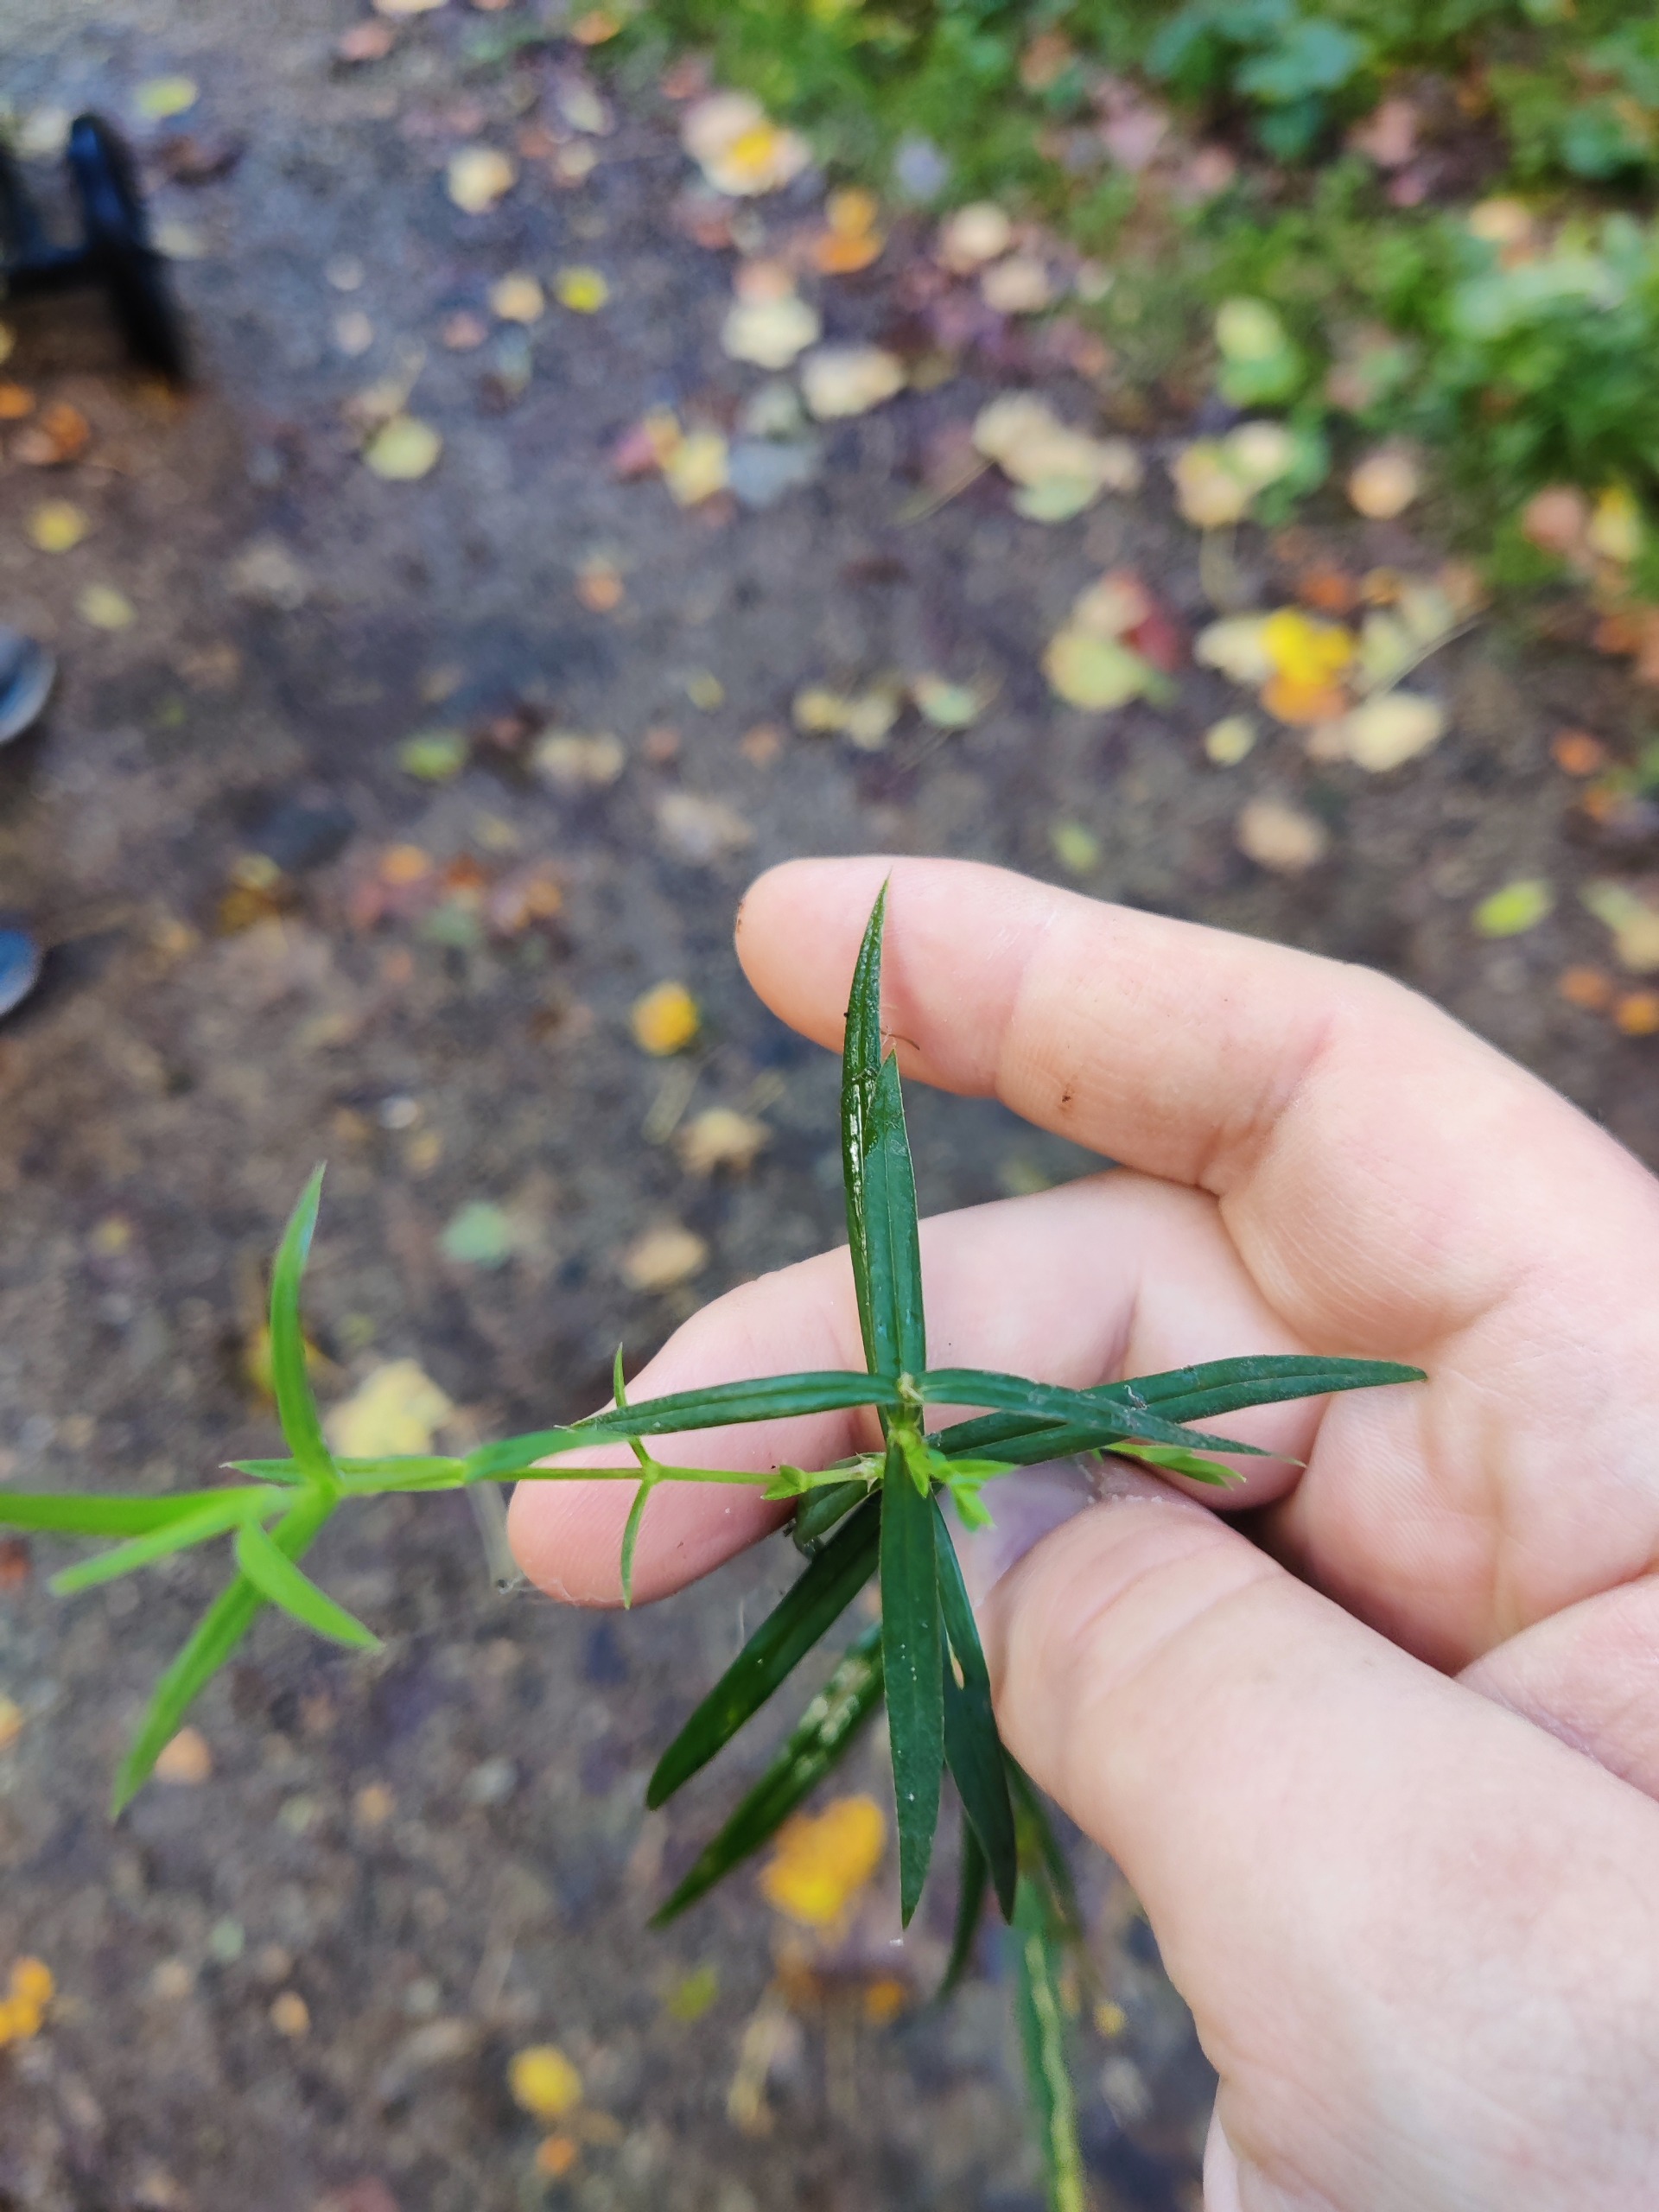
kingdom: Plantae
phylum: Tracheophyta
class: Magnoliopsida
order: Caryophyllales
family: Caryophyllaceae
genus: Rabelera
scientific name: Rabelera holostea
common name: Stor fladstjerne
